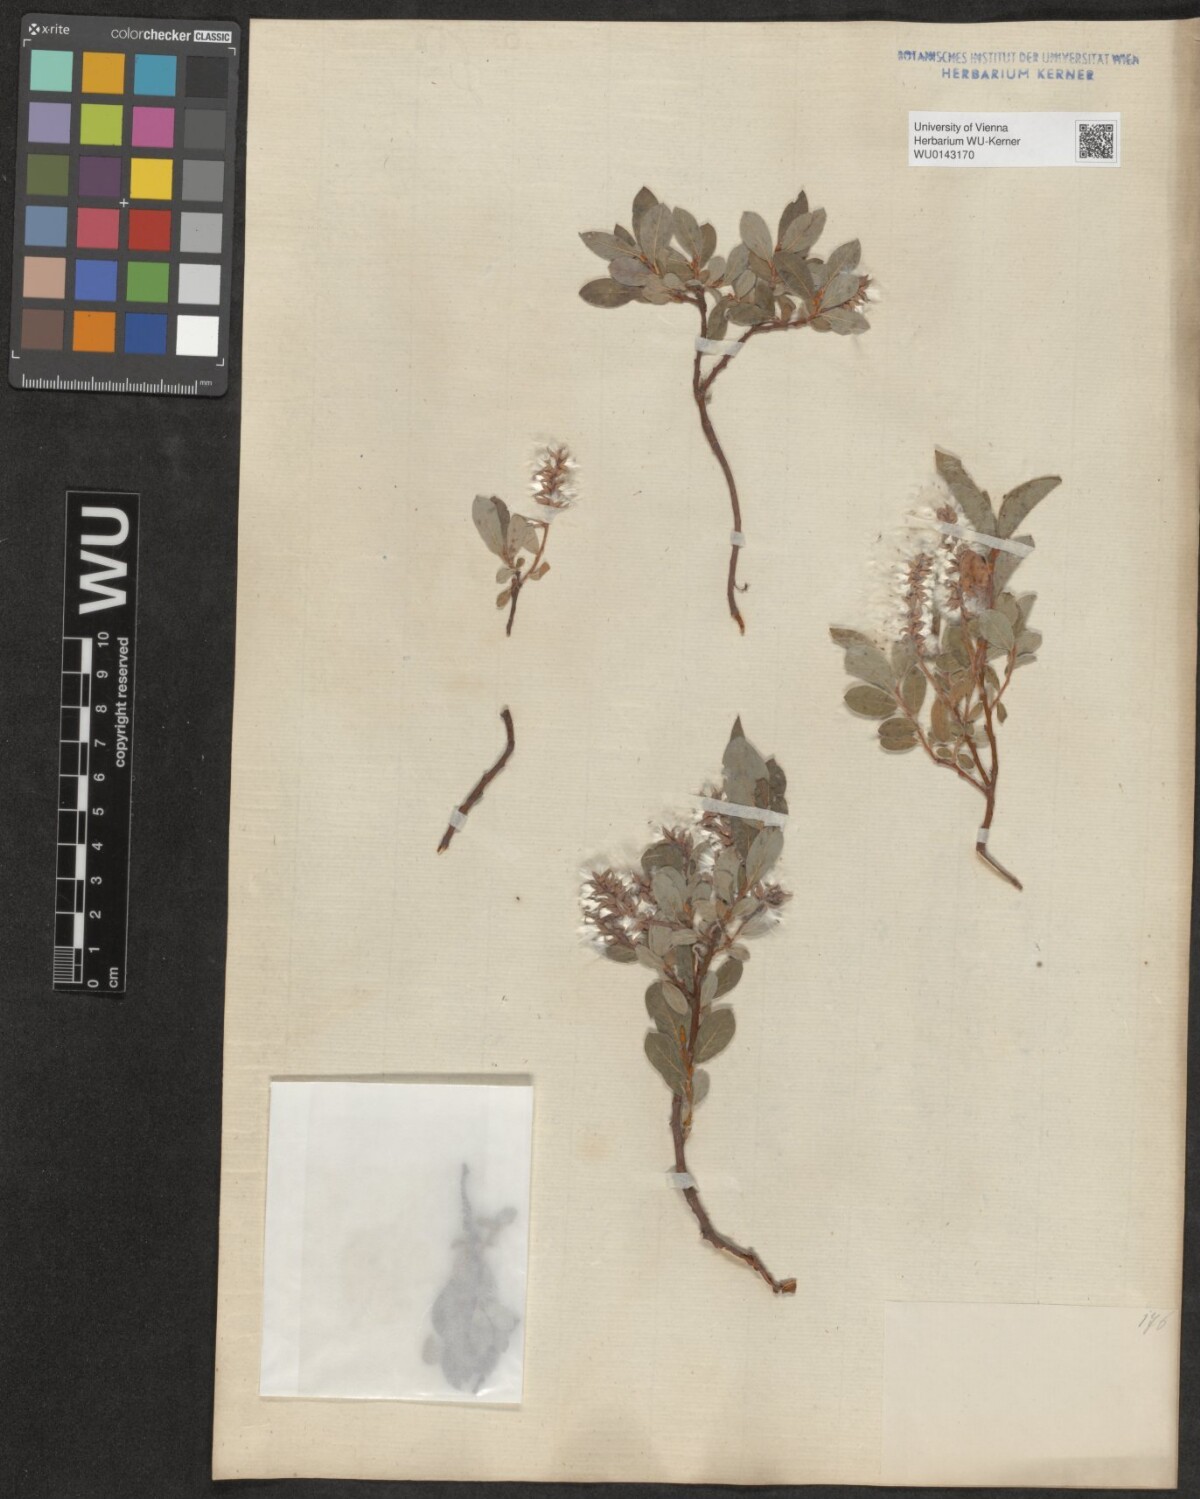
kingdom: Plantae
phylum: Tracheophyta
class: Magnoliopsida
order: Malpighiales
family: Salicaceae
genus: Salix
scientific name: Salix pyrenaica
